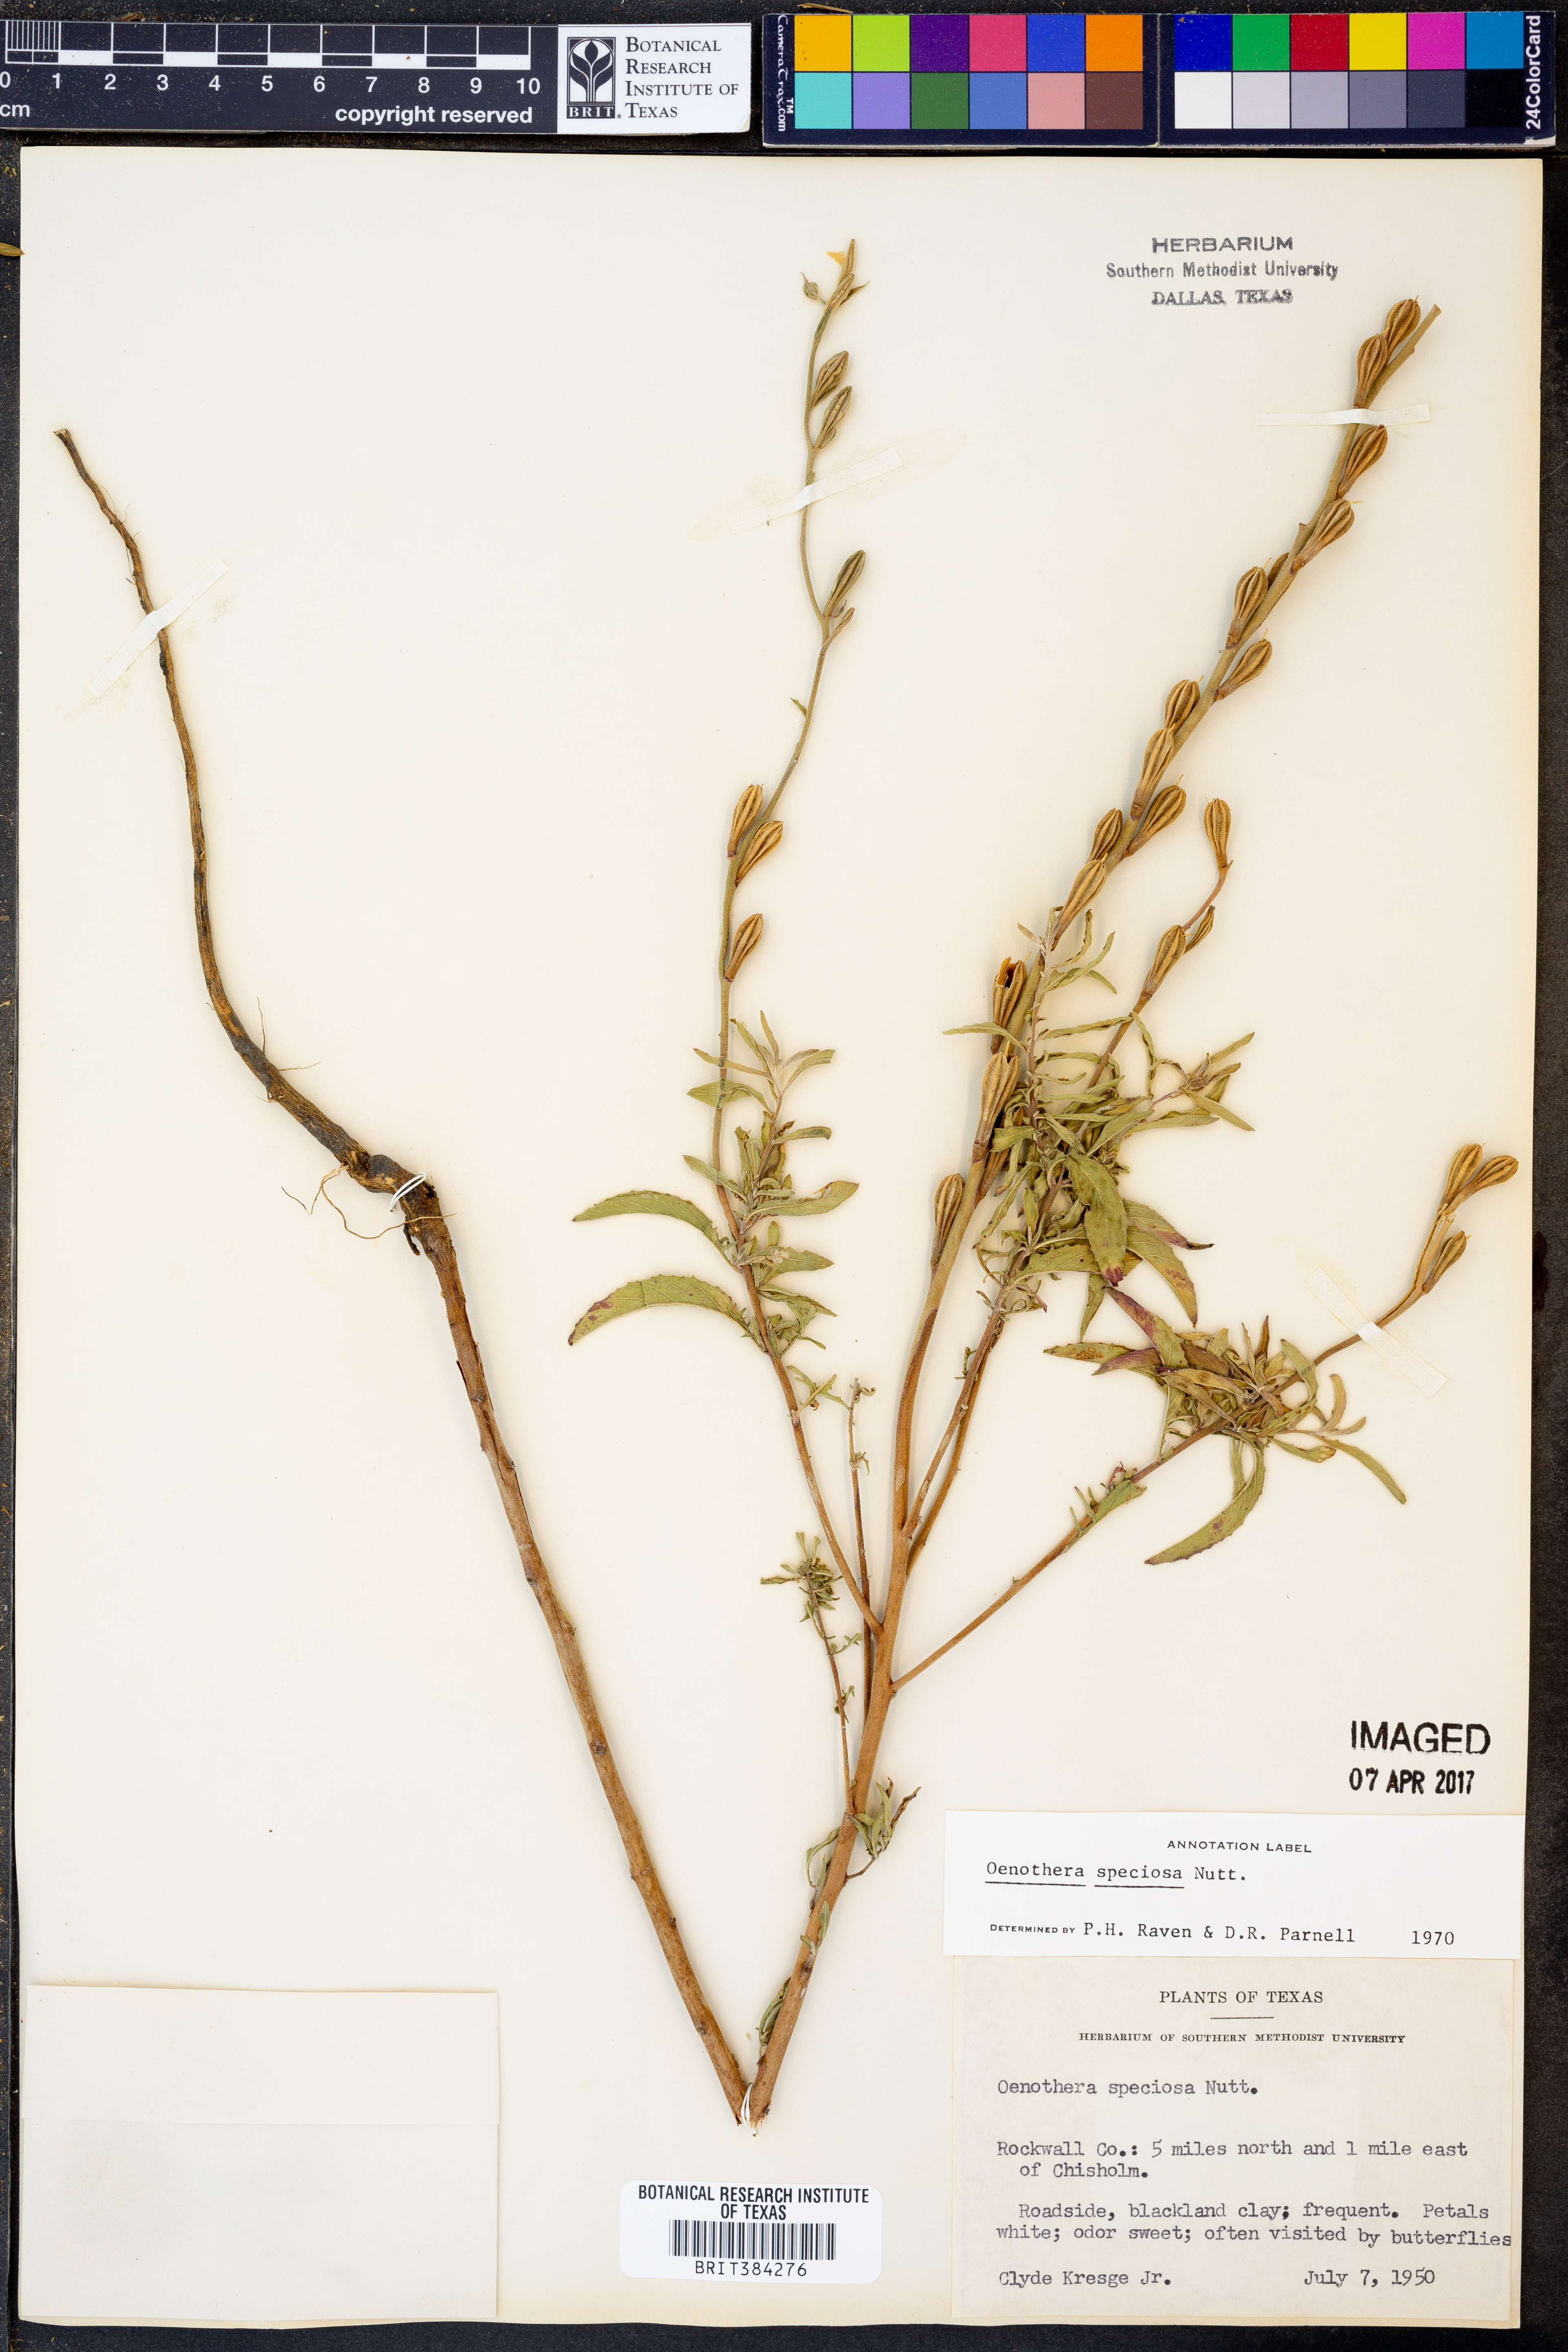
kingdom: Plantae
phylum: Tracheophyta
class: Magnoliopsida
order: Myrtales
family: Onagraceae
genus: Oenothera
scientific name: Oenothera speciosa
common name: White evening-primrose
